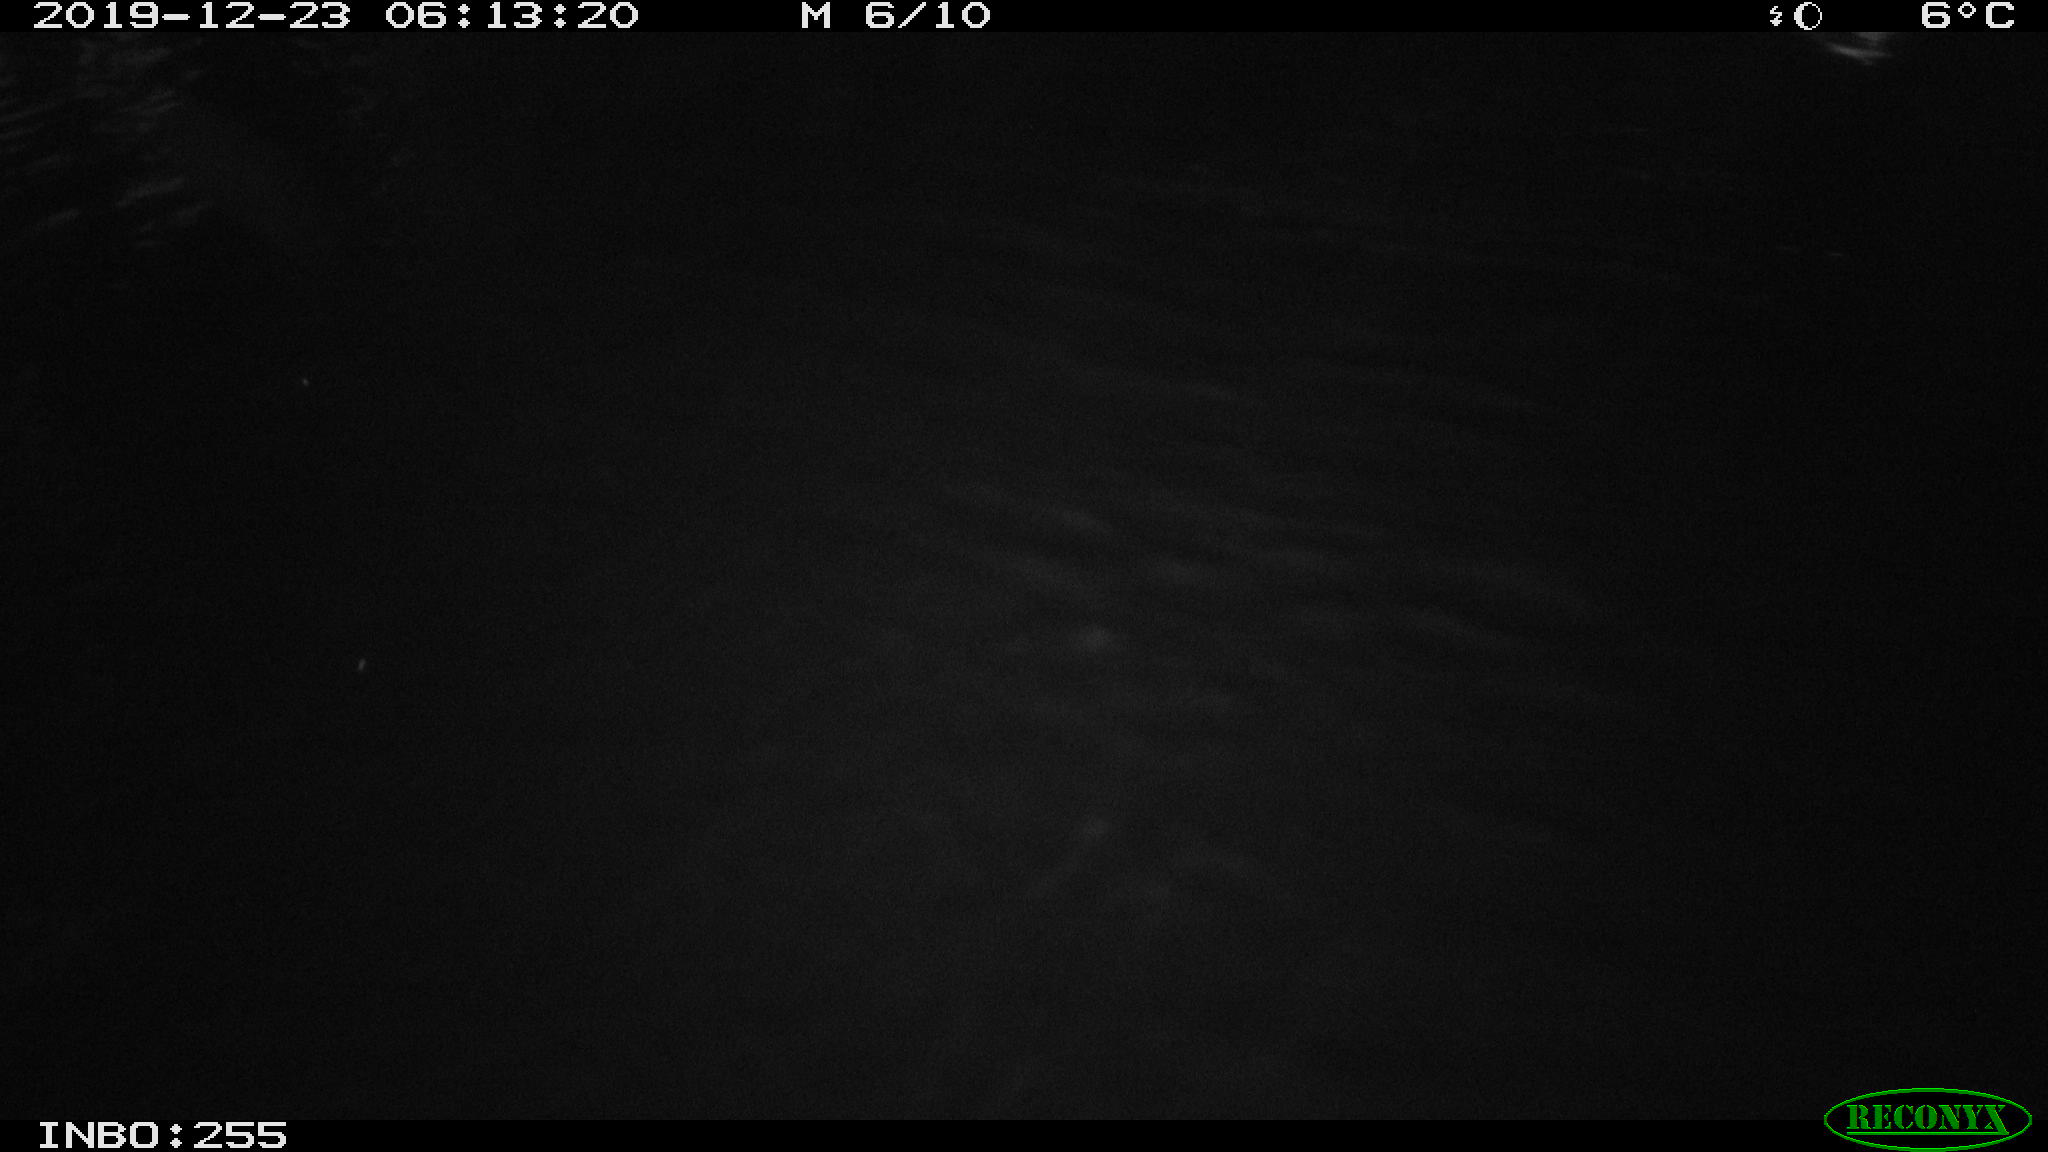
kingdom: Animalia
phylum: Chordata
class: Aves
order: Anseriformes
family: Anatidae
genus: Anas
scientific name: Anas platyrhynchos
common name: Mallard
